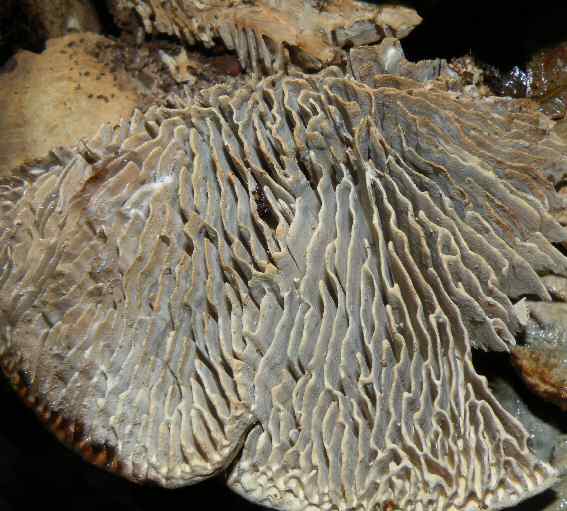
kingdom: Fungi
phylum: Basidiomycota
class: Agaricomycetes
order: Polyporales
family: Fomitopsidaceae
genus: Daedalea
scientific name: Daedalea quercina
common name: ege-labyrintsvamp
